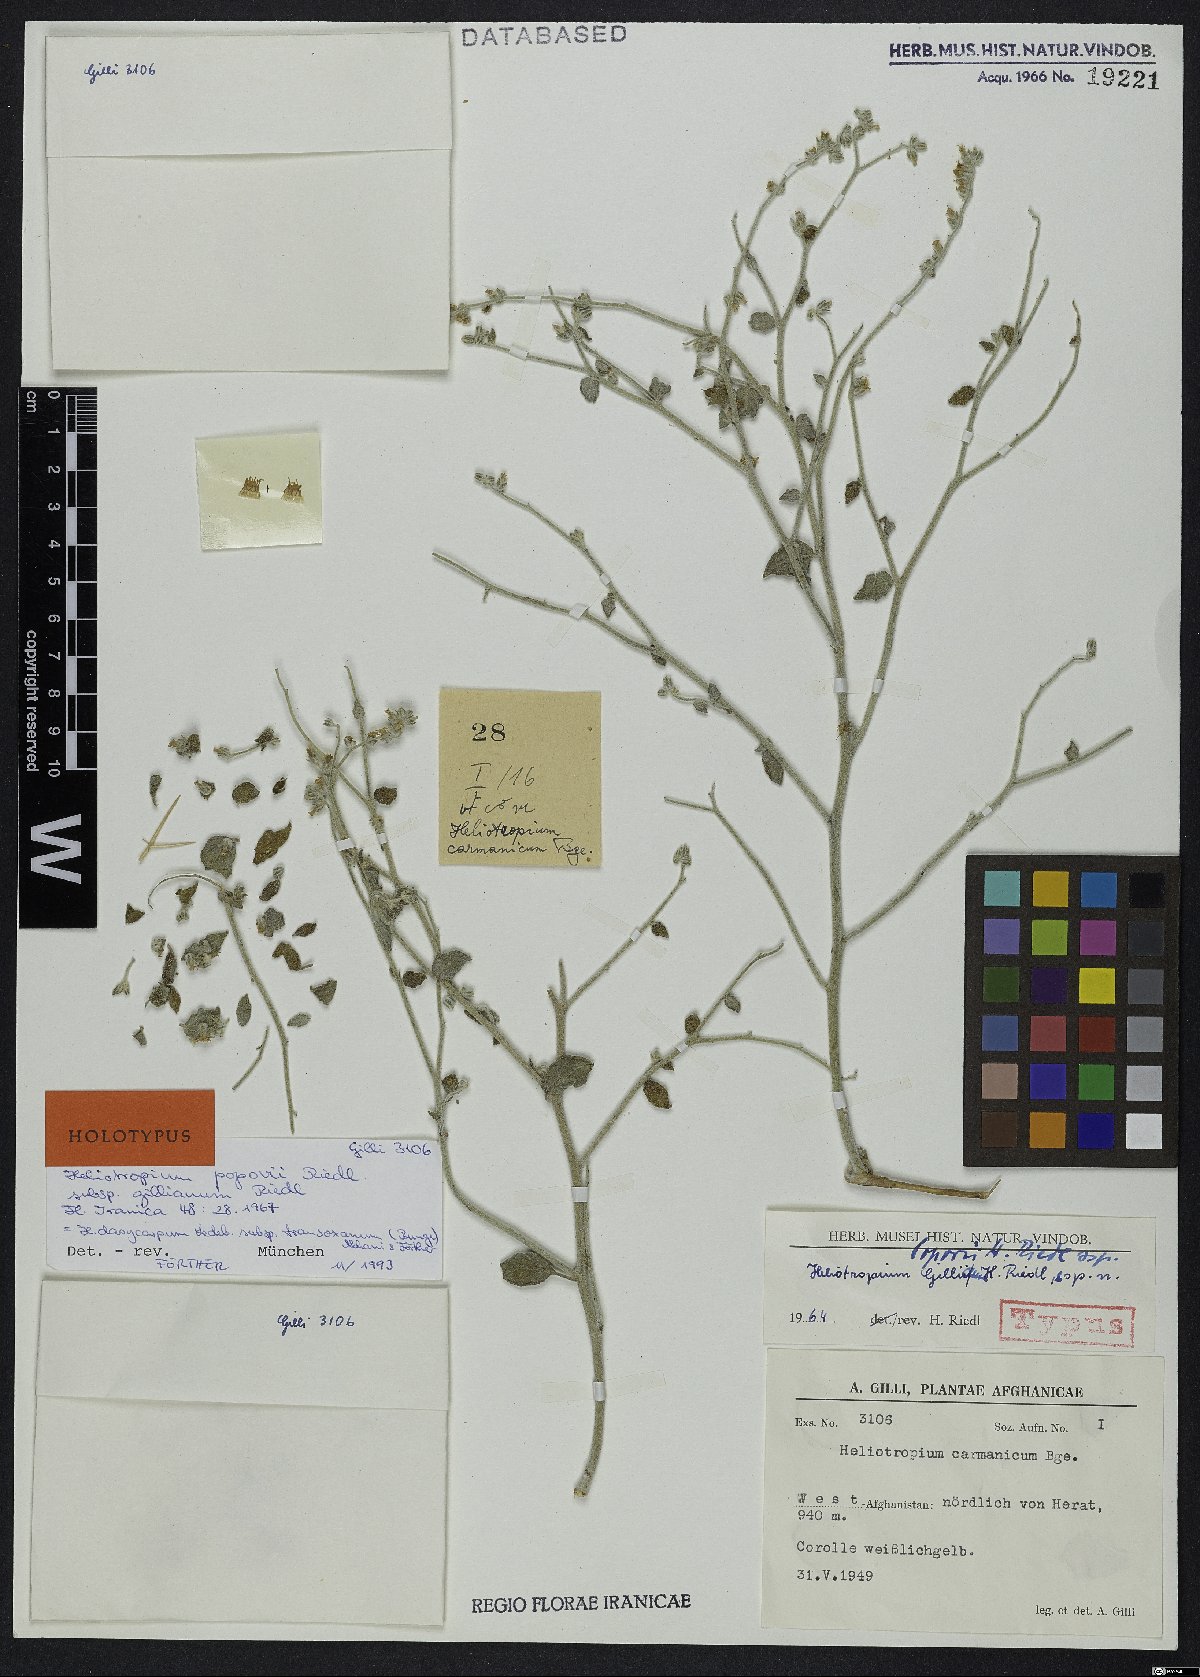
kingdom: Plantae
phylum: Tracheophyta
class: Magnoliopsida
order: Boraginales
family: Heliotropiaceae
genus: Heliotropium
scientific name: Heliotropium dasycarpum
